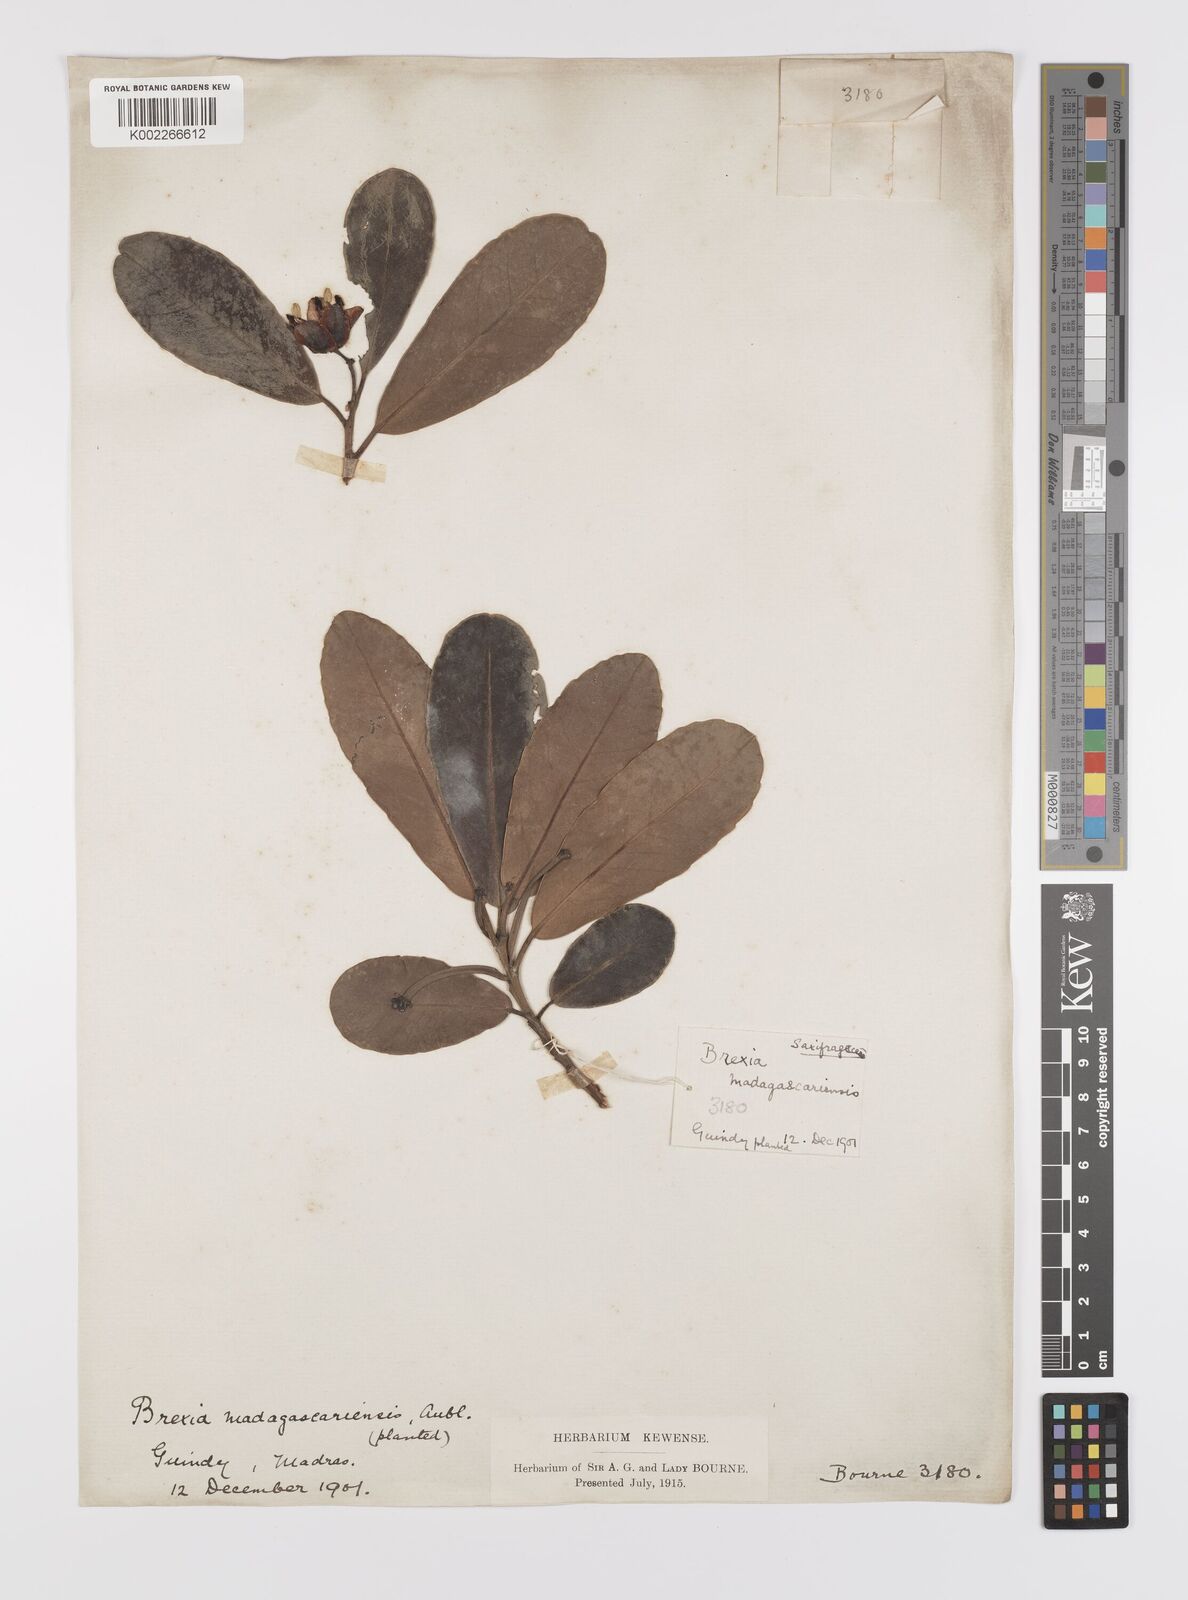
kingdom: Plantae
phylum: Tracheophyta
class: Magnoliopsida
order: Celastrales
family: Celastraceae
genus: Brexia
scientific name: Brexia madagascariensis
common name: Brexia
